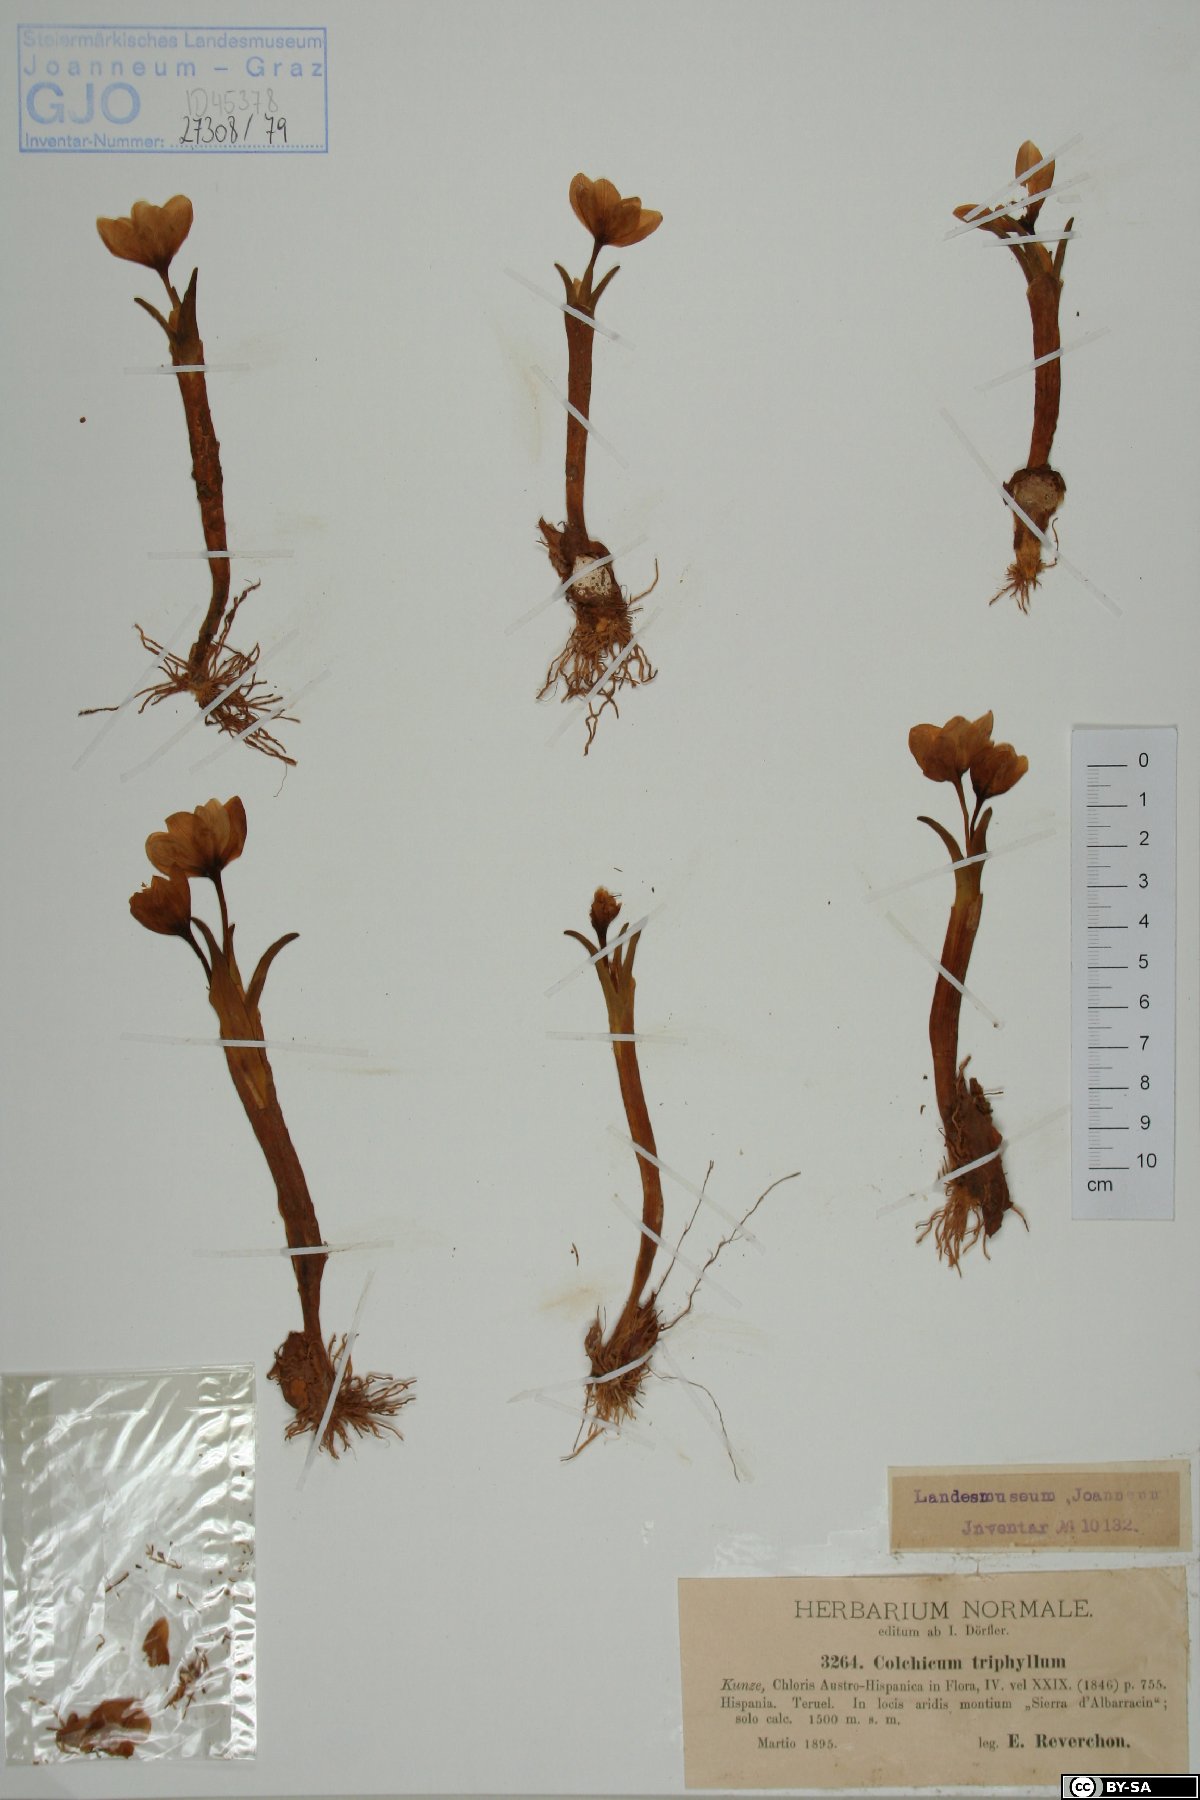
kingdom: Plantae
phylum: Tracheophyta
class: Liliopsida
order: Liliales
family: Colchicaceae
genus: Colchicum
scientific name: Colchicum triphyllum
